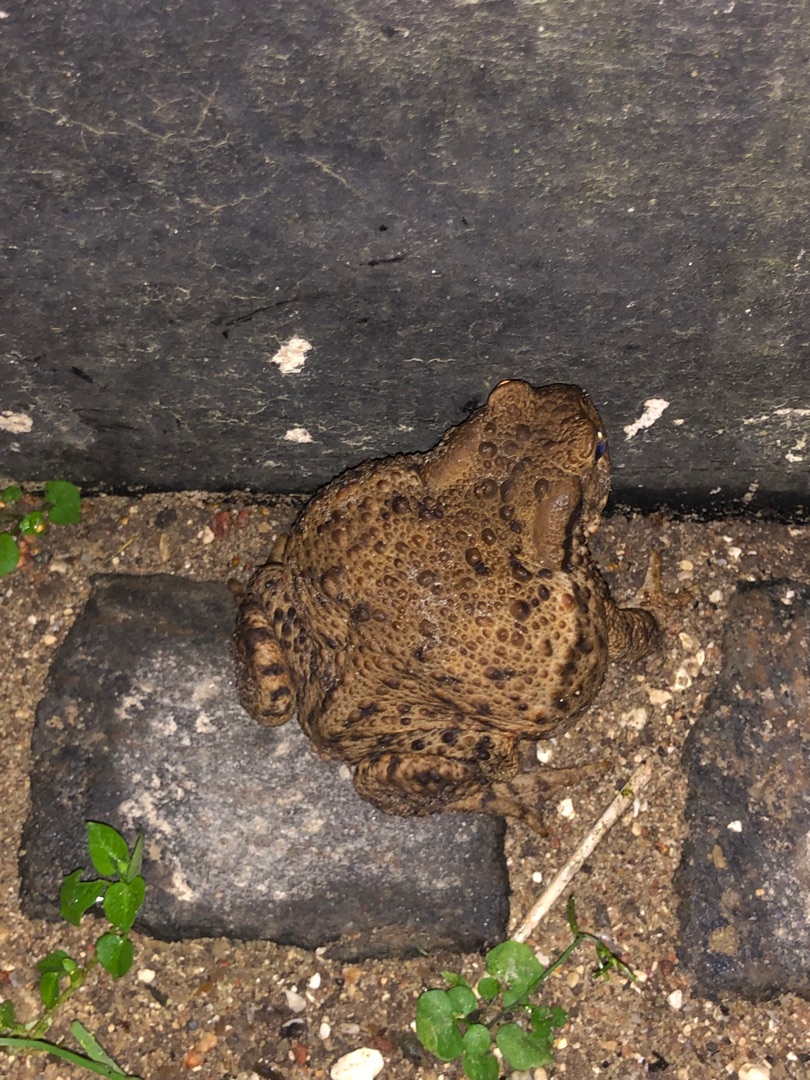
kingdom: Animalia
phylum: Chordata
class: Amphibia
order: Anura
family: Bufonidae
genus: Bufo
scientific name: Bufo bufo
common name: Skrubtudse
